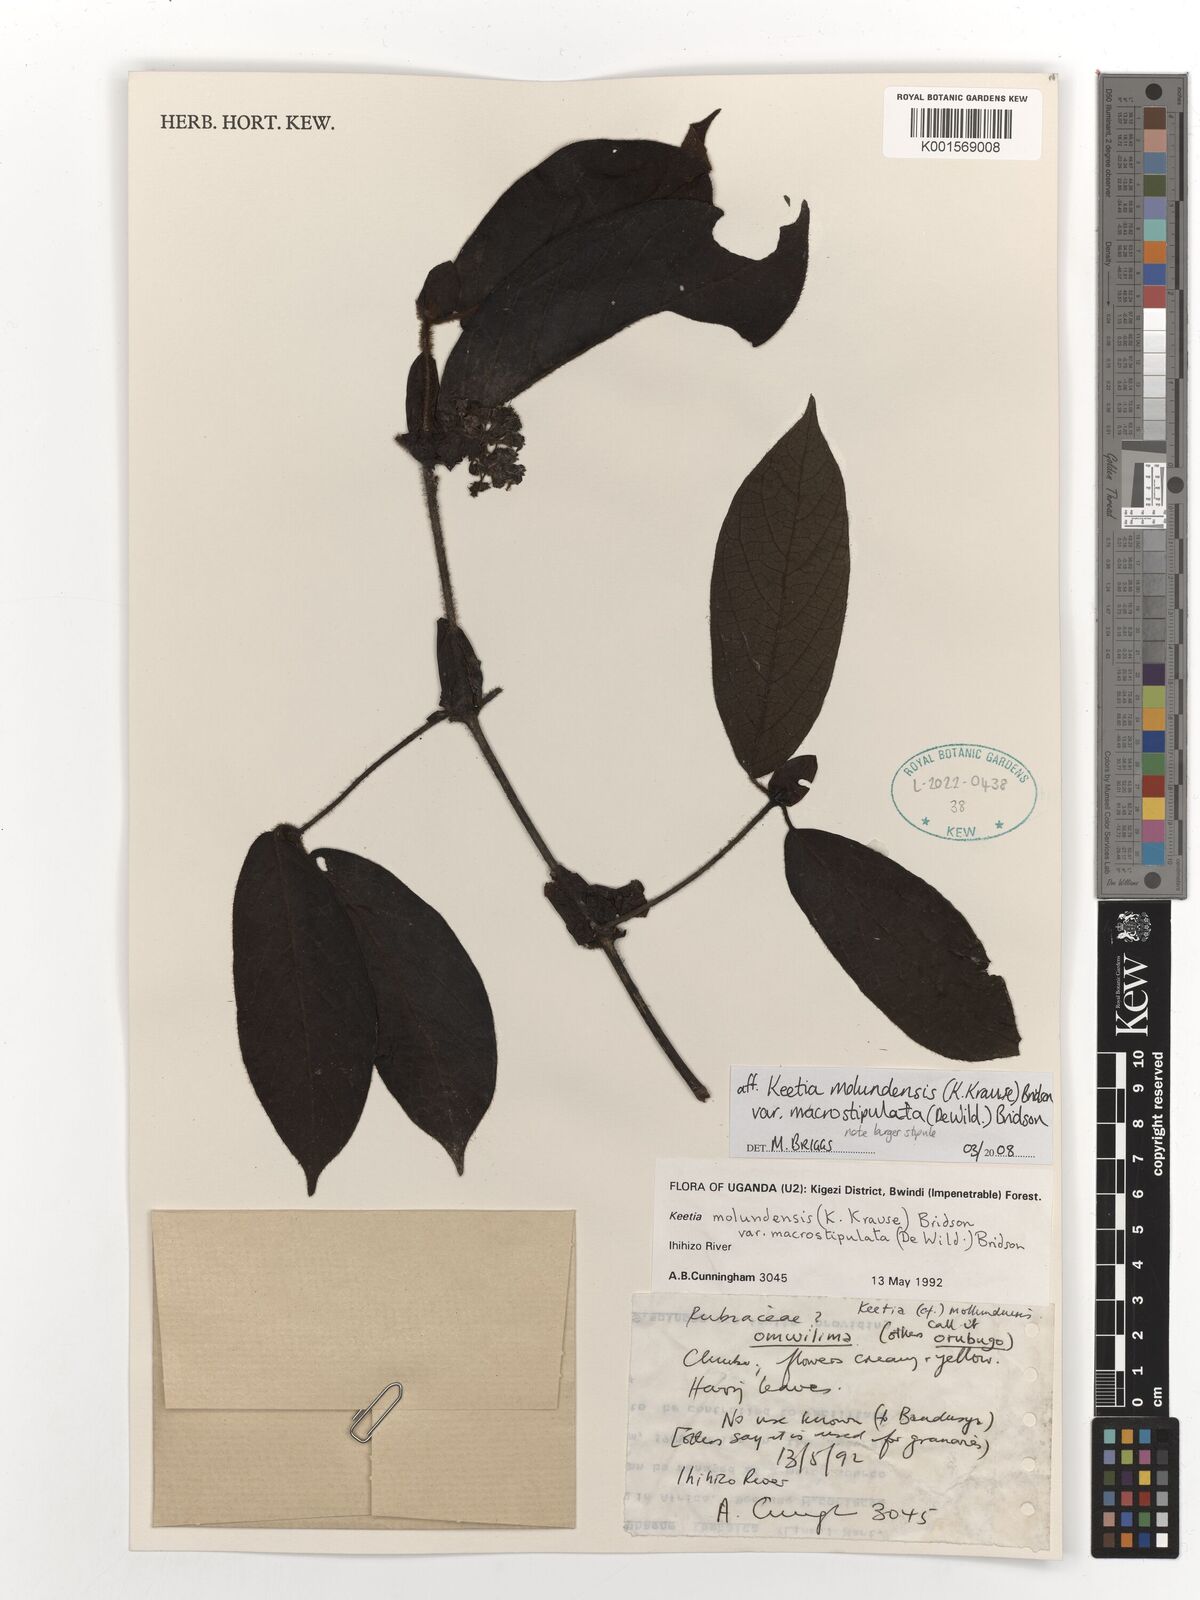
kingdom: Plantae
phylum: Tracheophyta
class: Magnoliopsida
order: Gentianales
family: Rubiaceae
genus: Keetia
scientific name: Keetia molundensis
